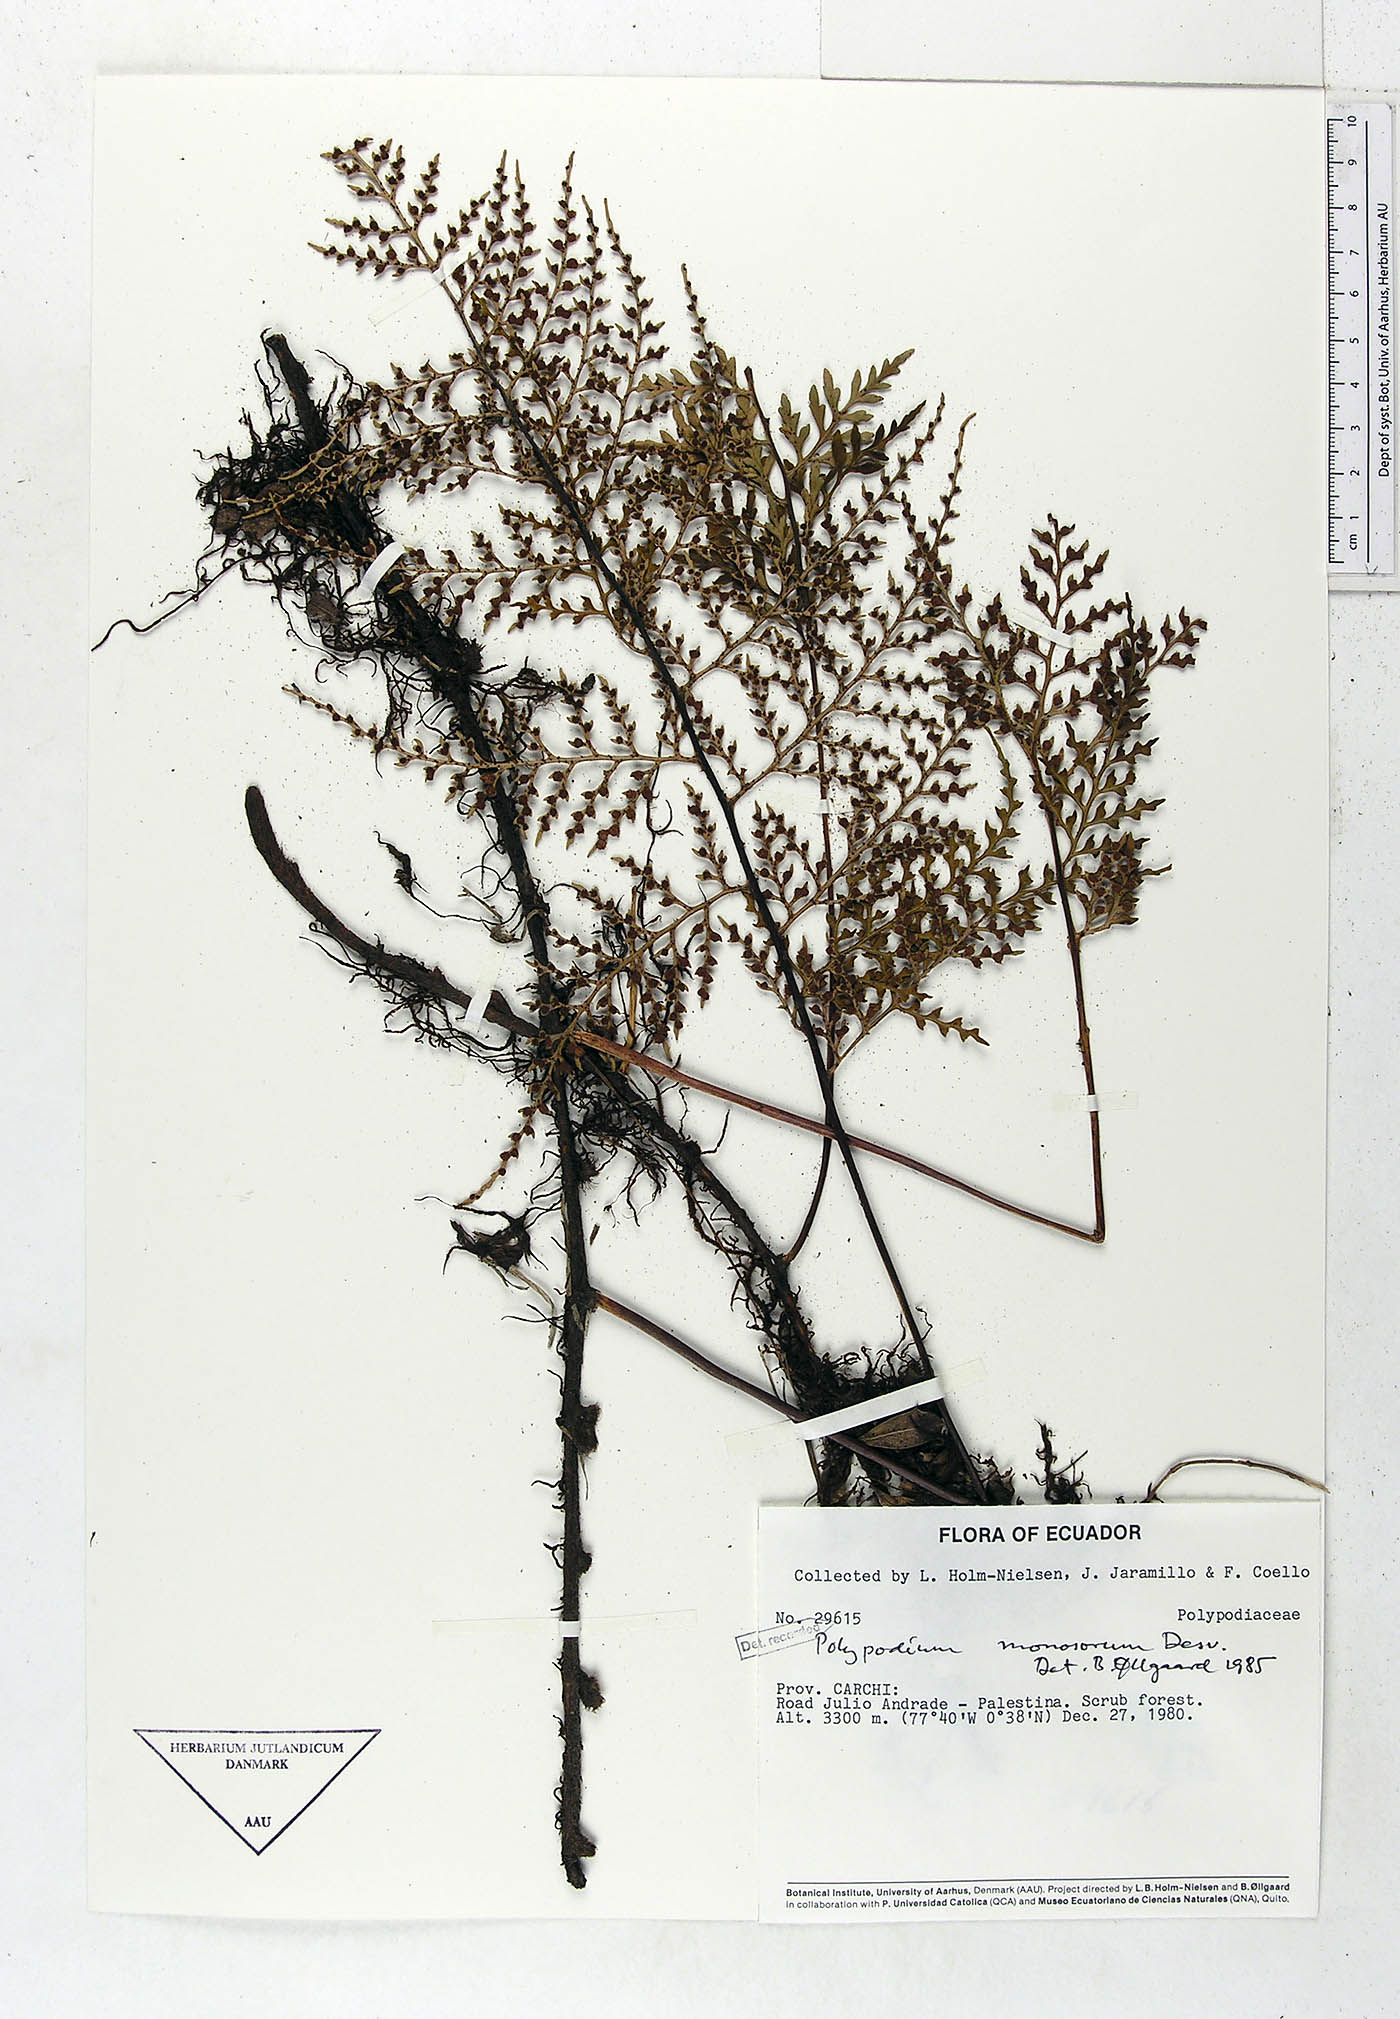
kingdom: Plantae
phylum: Tracheophyta
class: Polypodiopsida
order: Polypodiales
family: Polypodiaceae
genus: Pleopeltis
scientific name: Pleopeltis monosora
